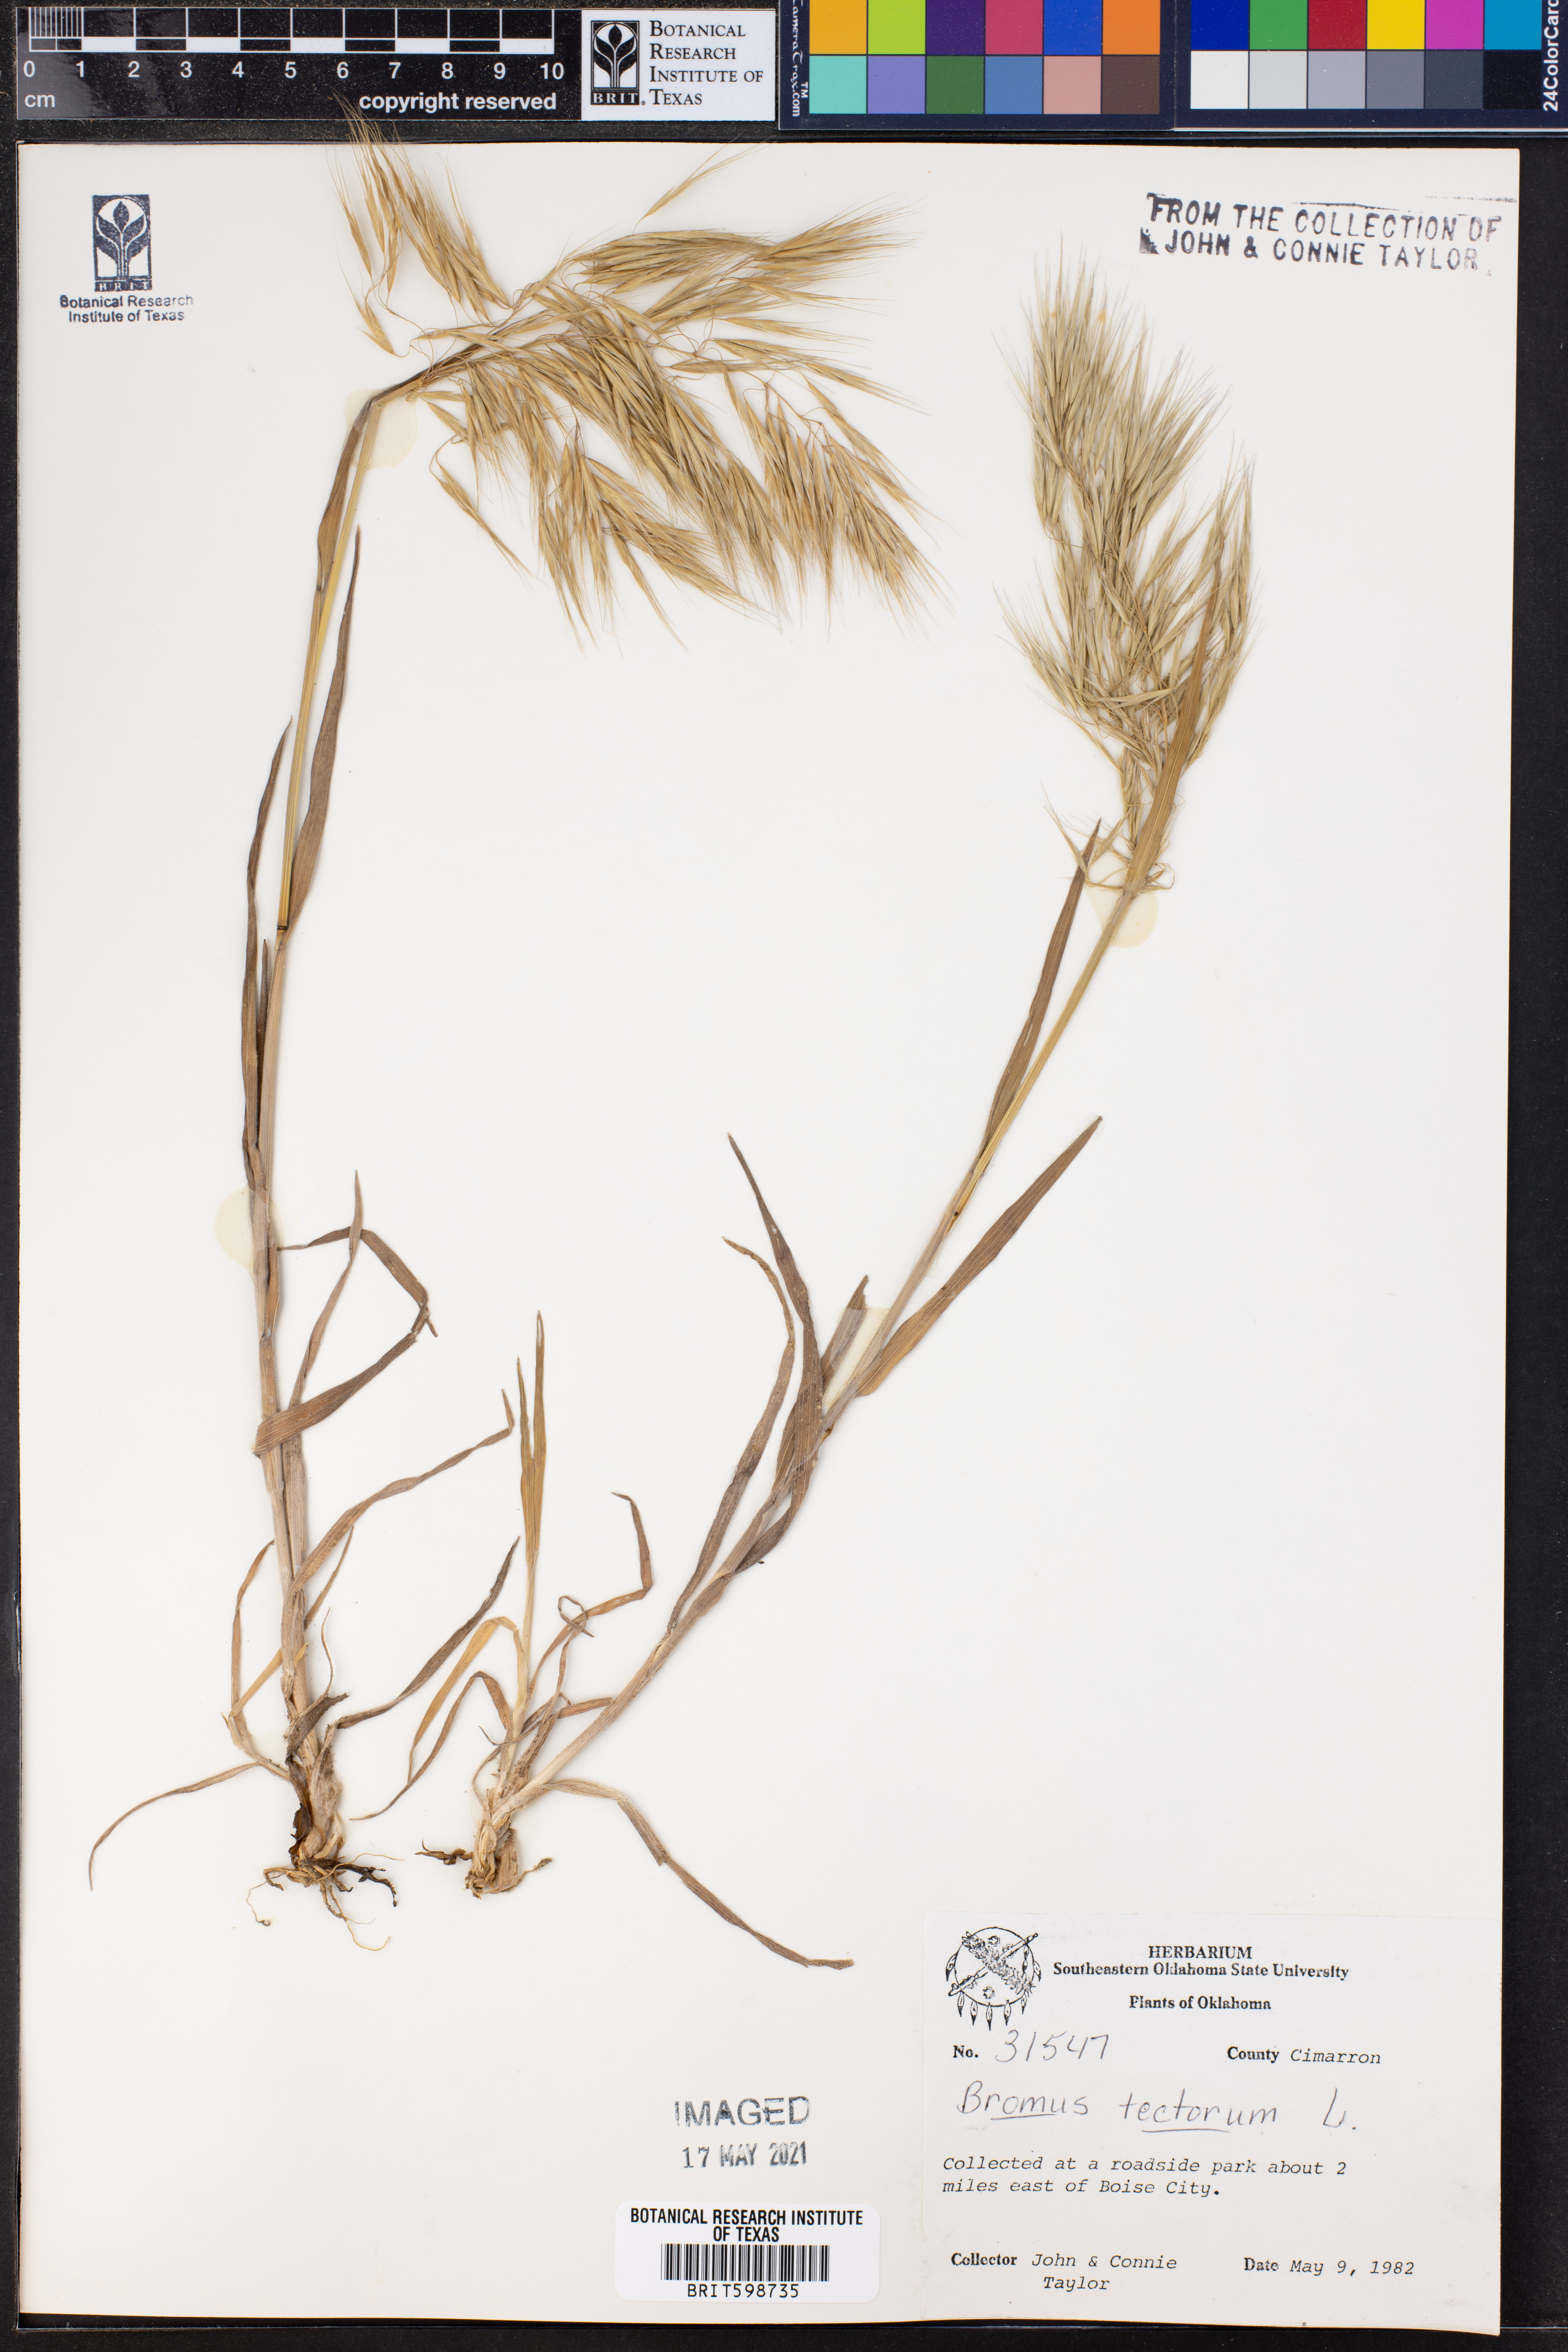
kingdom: Plantae
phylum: Tracheophyta
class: Liliopsida
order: Poales
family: Poaceae
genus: Bromus
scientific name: Bromus tectorum
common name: Cheatgrass
